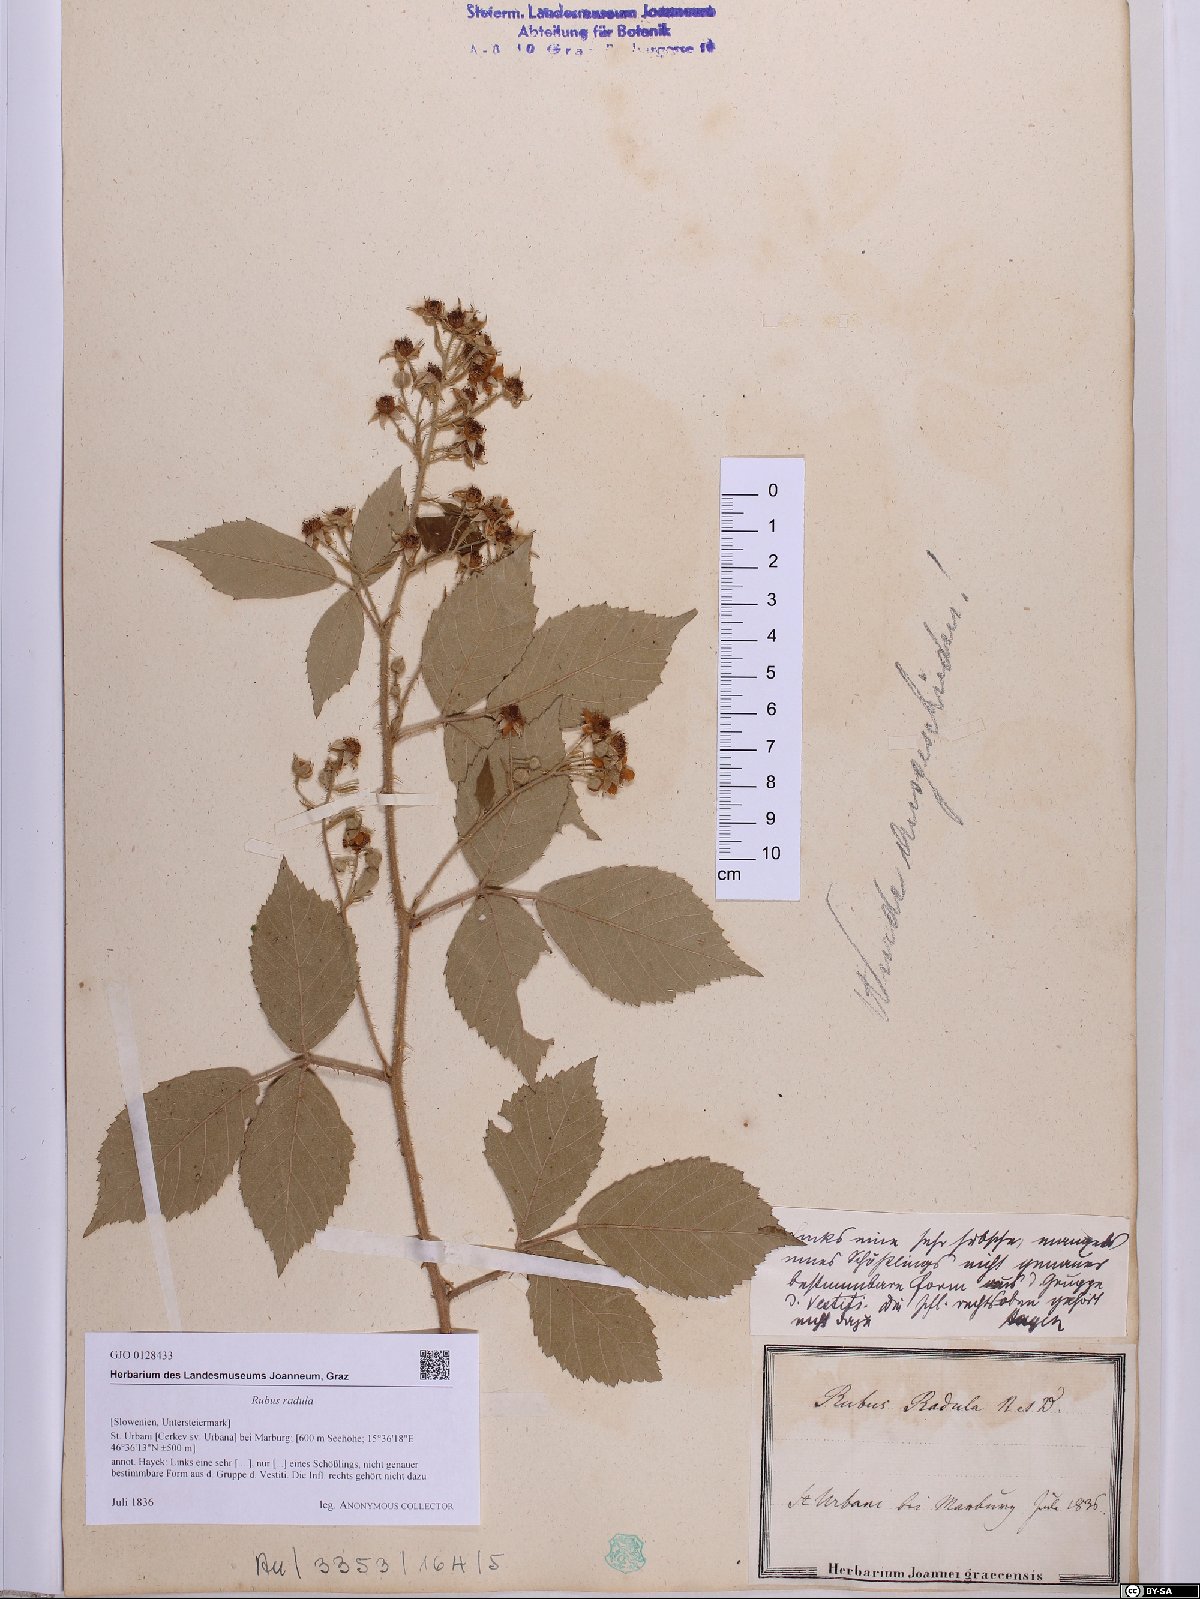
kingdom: Plantae
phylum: Tracheophyta
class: Magnoliopsida
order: Rosales
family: Rosaceae
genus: Rubus
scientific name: Rubus radula
